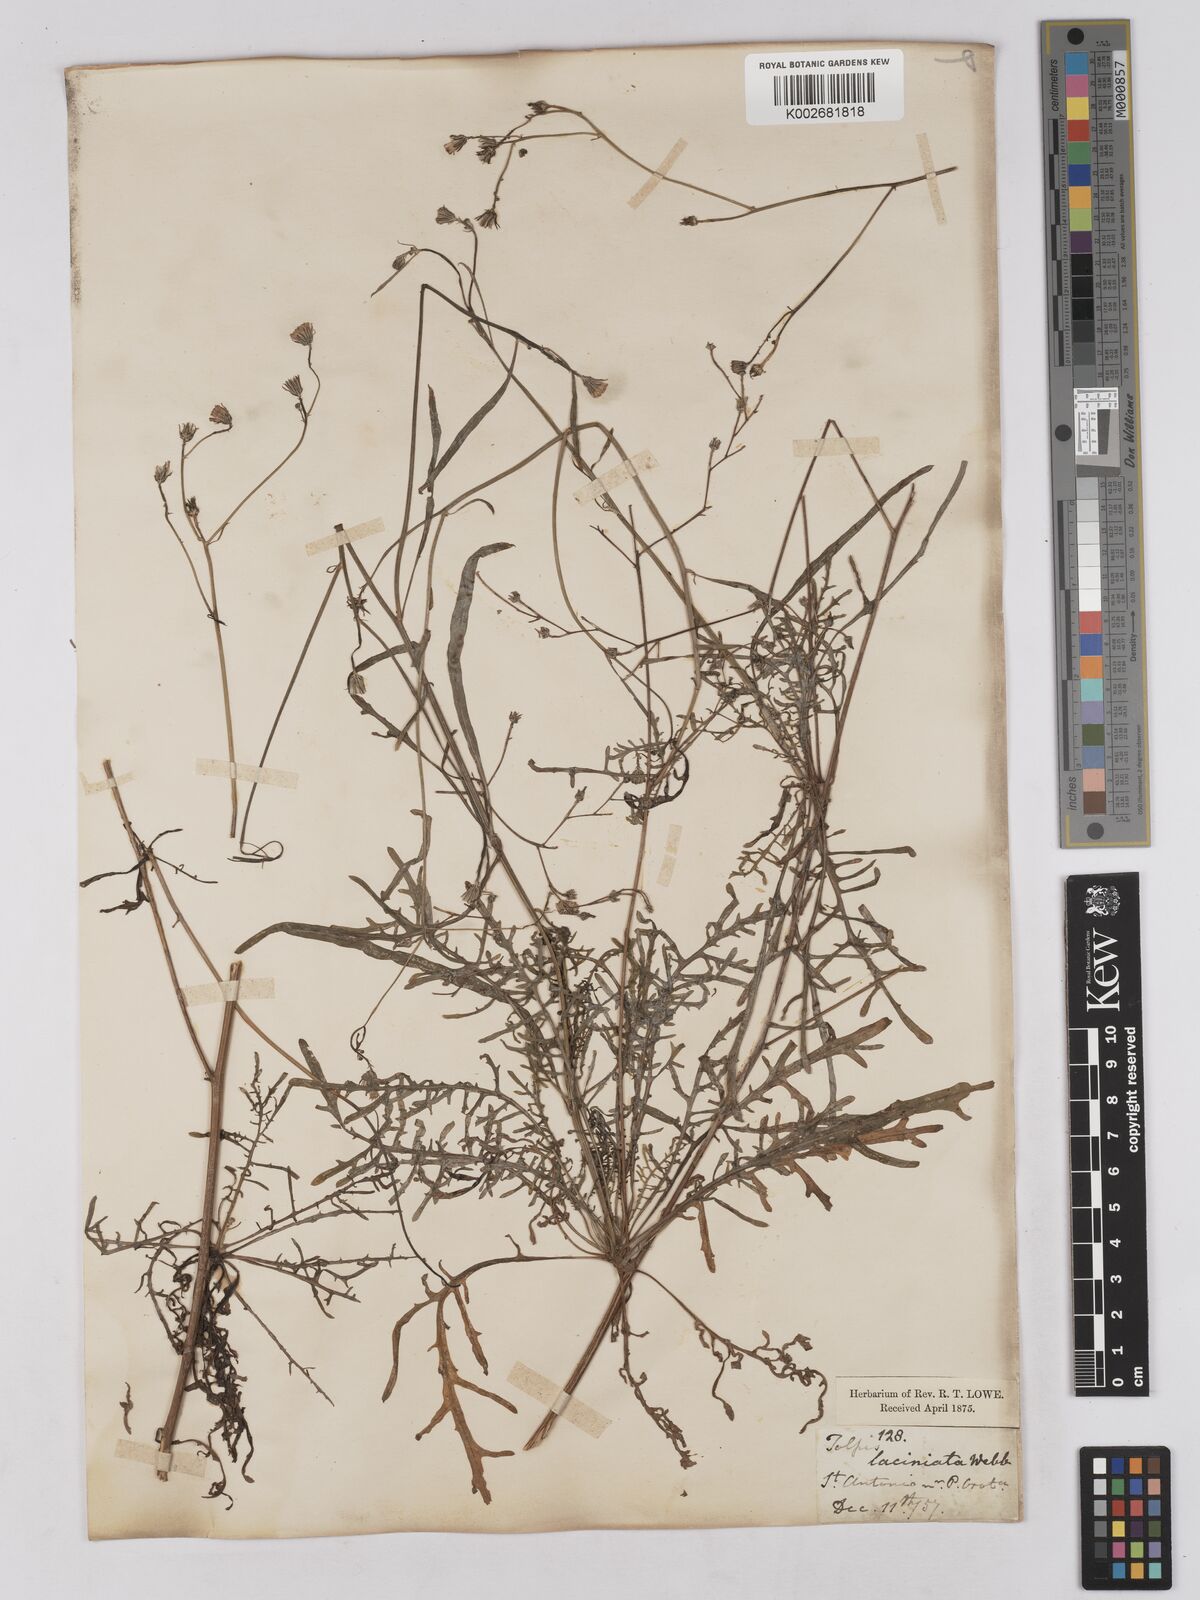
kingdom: Plantae
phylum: Tracheophyta
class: Magnoliopsida
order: Asterales
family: Asteraceae
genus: Tolpis
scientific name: Tolpis coronopifolia
